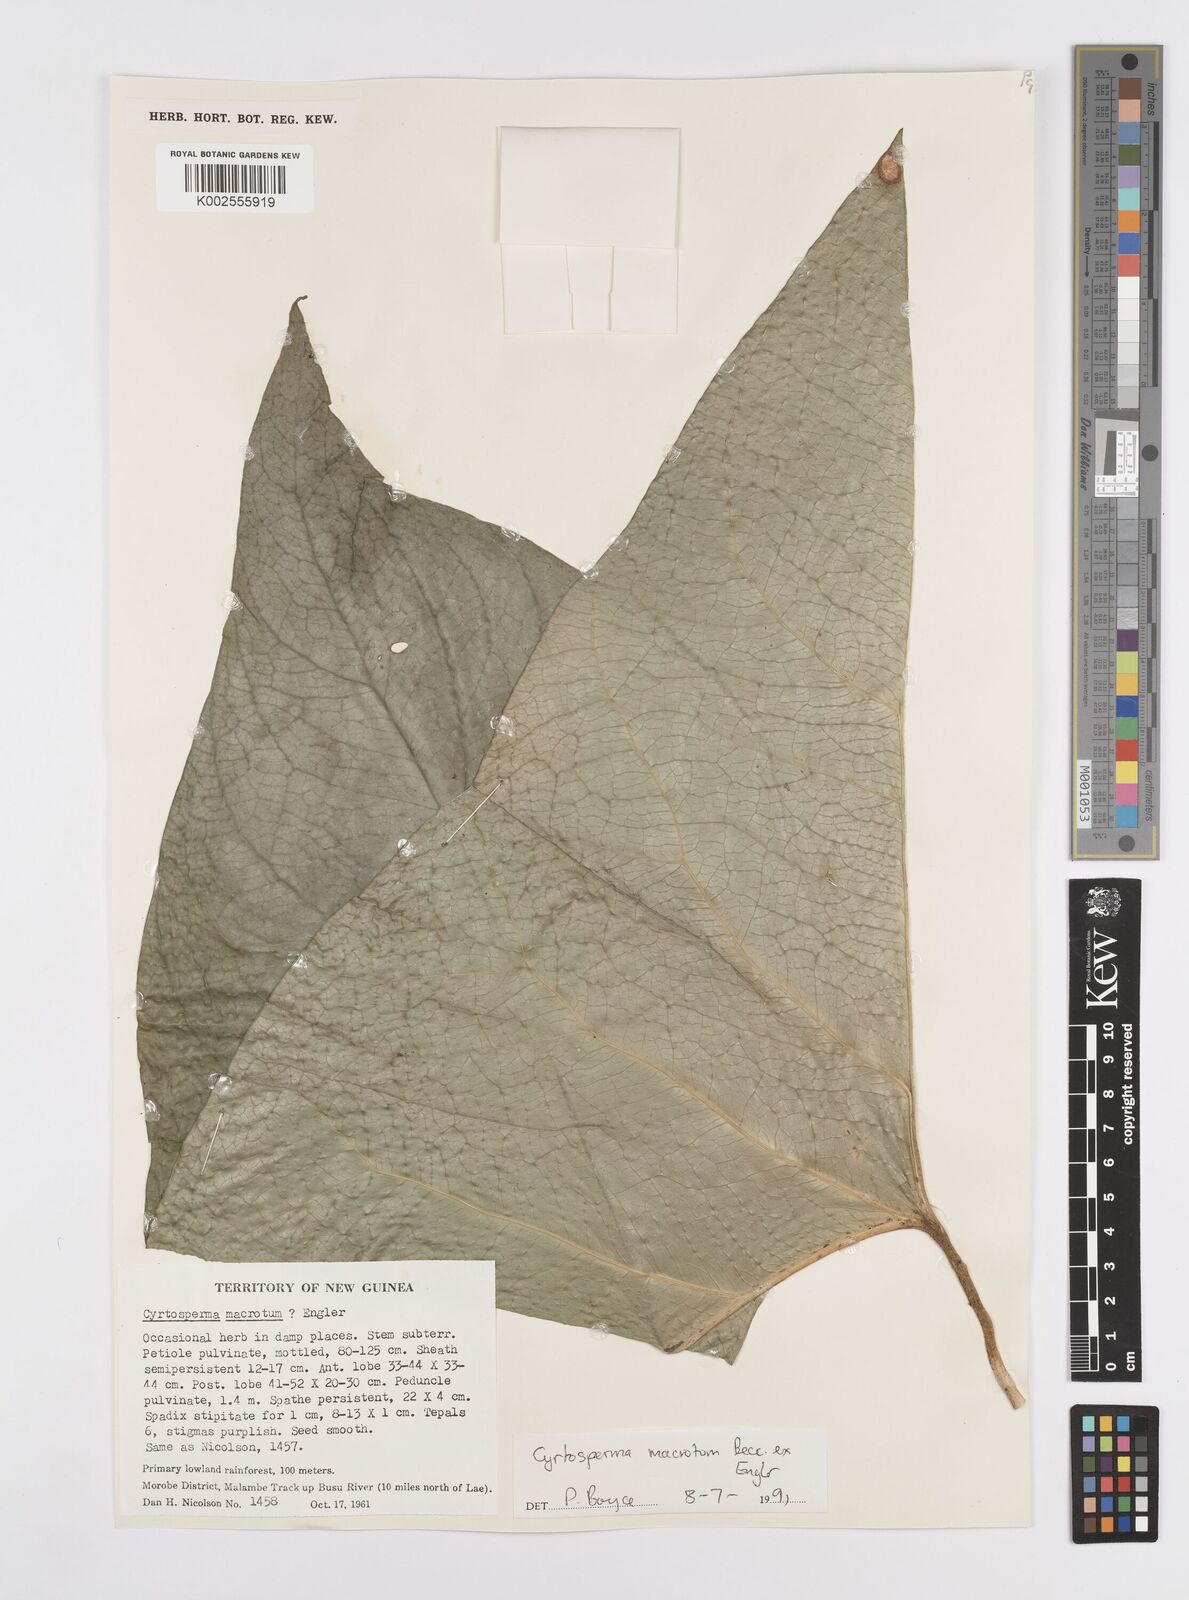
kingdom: Plantae
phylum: Tracheophyta
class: Liliopsida
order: Alismatales
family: Araceae
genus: Cyrtosperma
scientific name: Cyrtosperma macrotum
